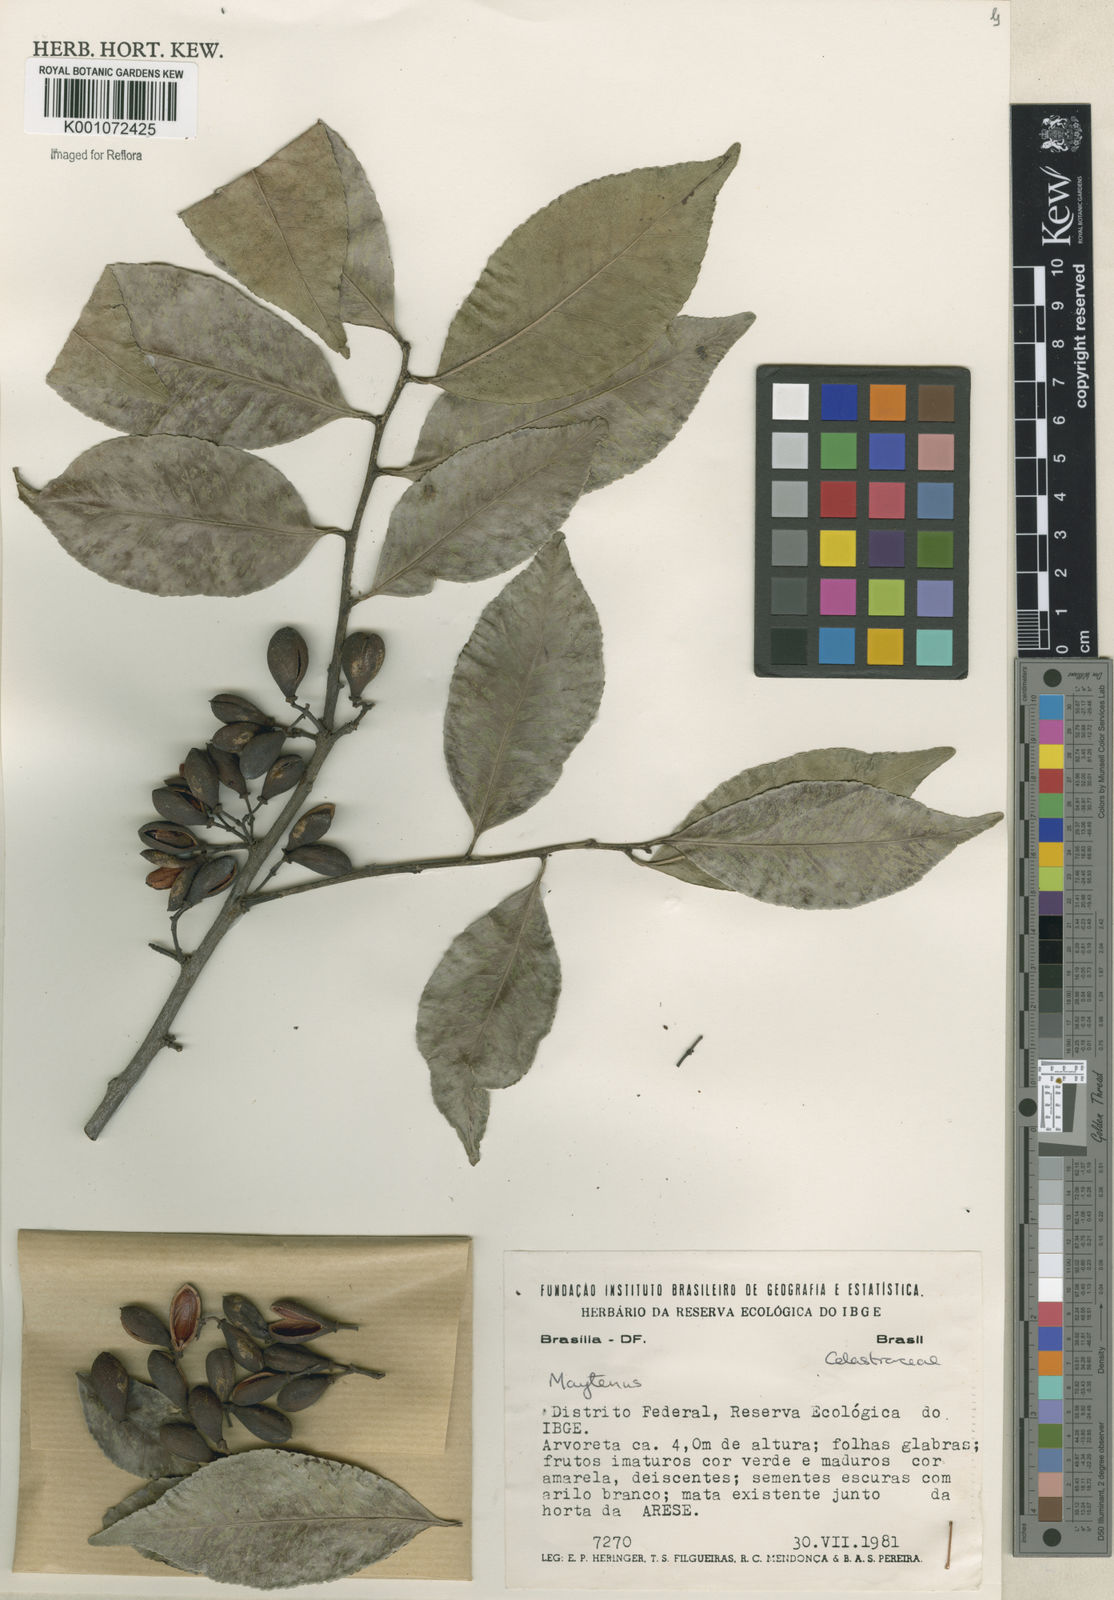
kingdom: Plantae
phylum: Tracheophyta
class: Magnoliopsida
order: Celastrales
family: Celastraceae
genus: Maytenus
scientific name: Maytenus
